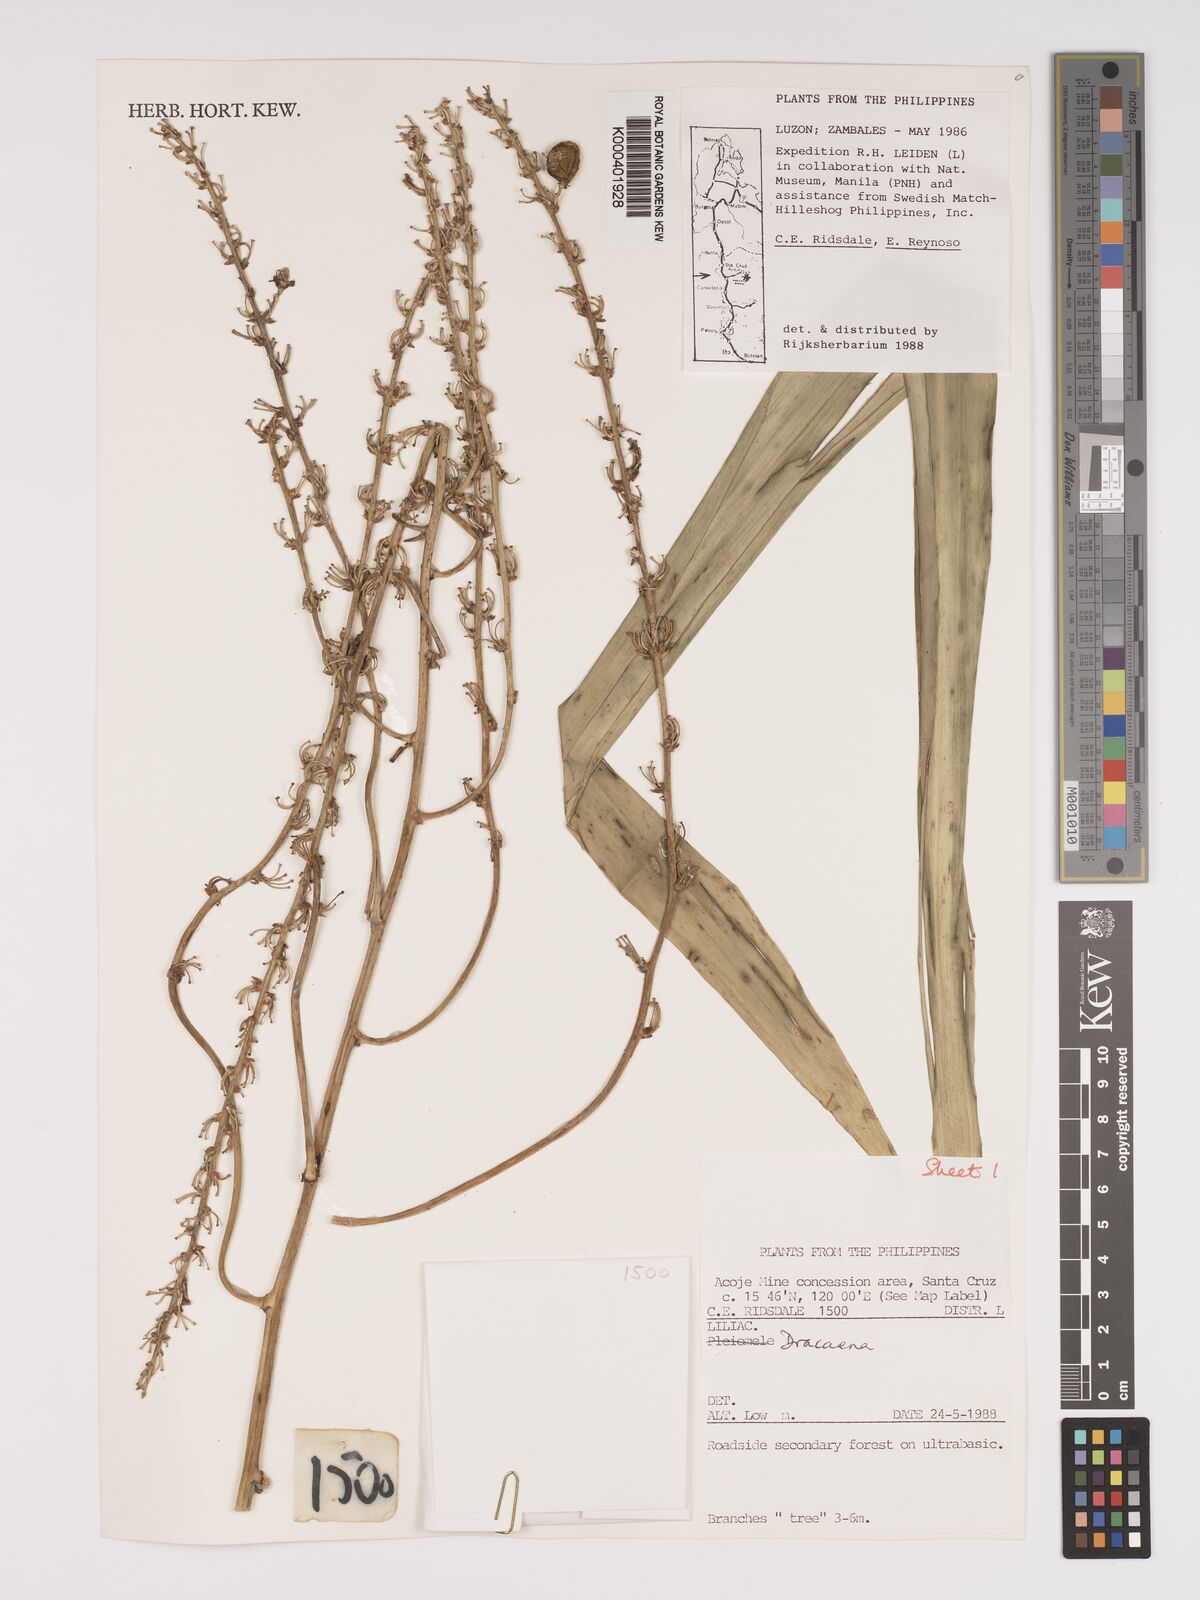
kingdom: Plantae
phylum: Tracheophyta
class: Liliopsida
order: Asparagales
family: Asparagaceae
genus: Dracaena
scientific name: Dracaena
